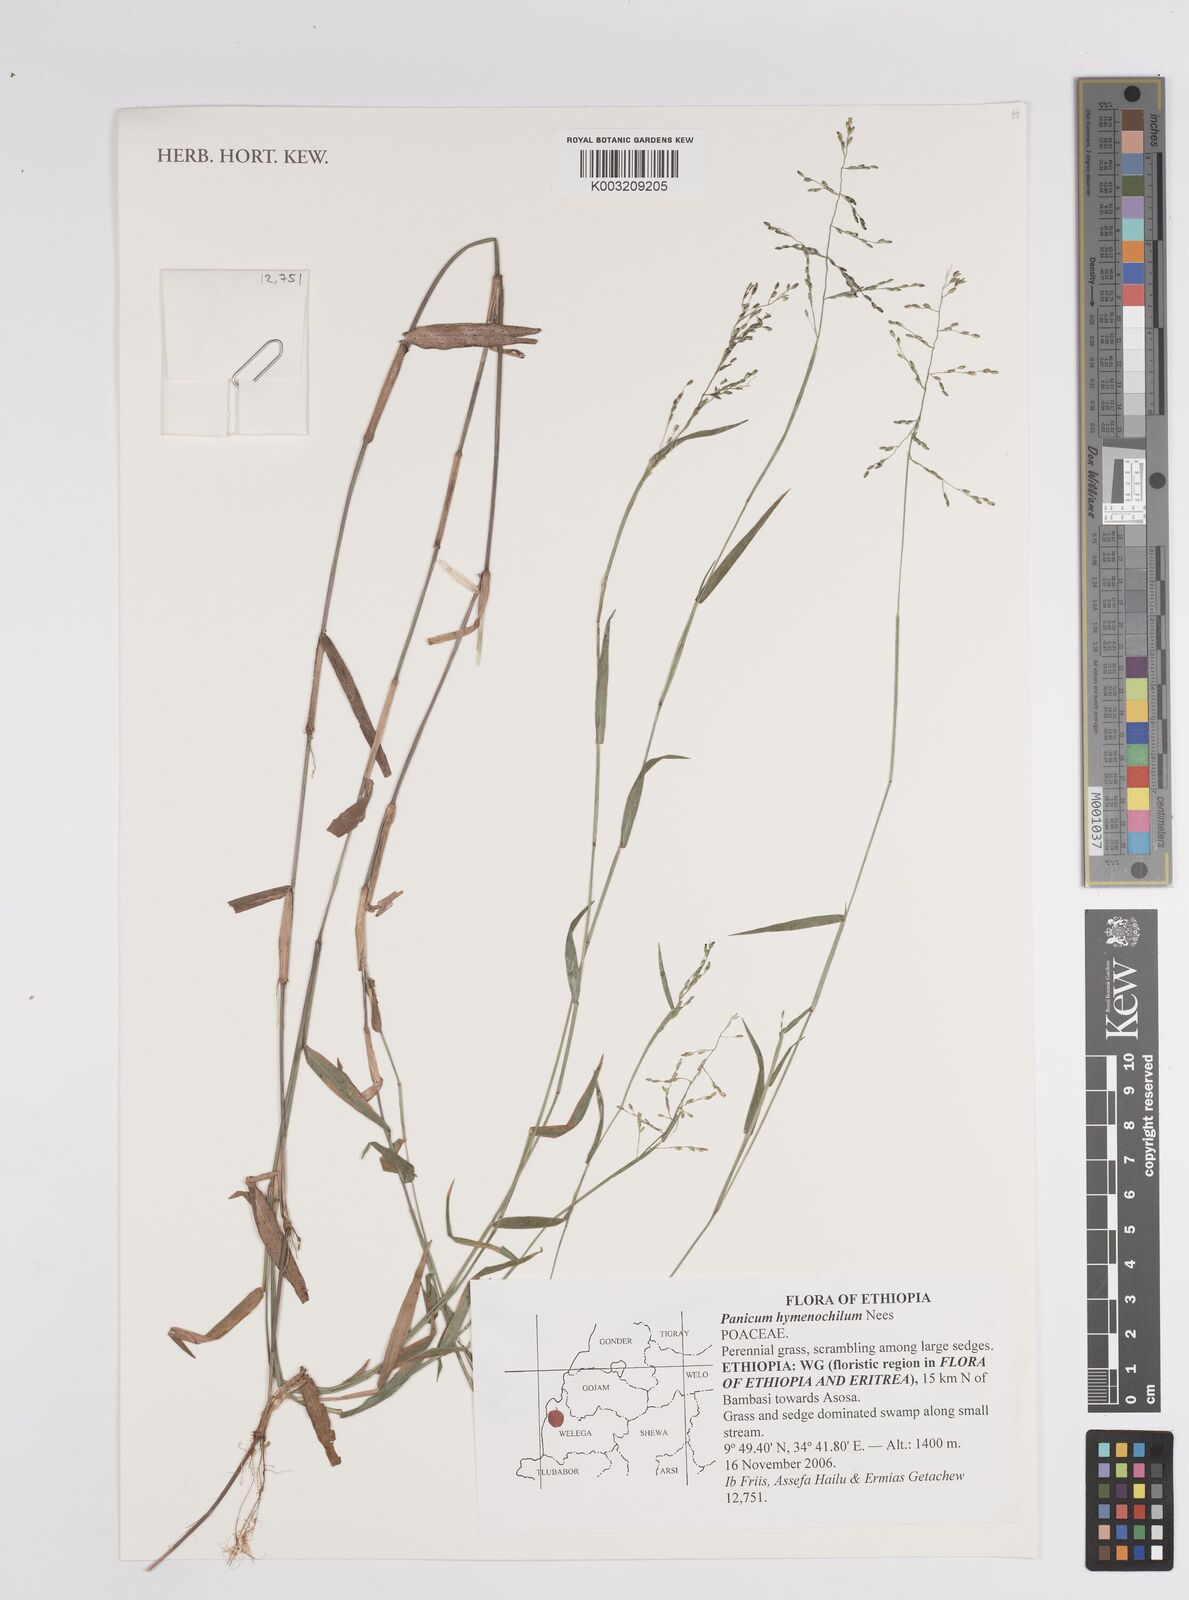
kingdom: Plantae
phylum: Tracheophyta
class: Liliopsida
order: Poales
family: Poaceae
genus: Adenochloa
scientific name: Adenochloa hymeniochila
